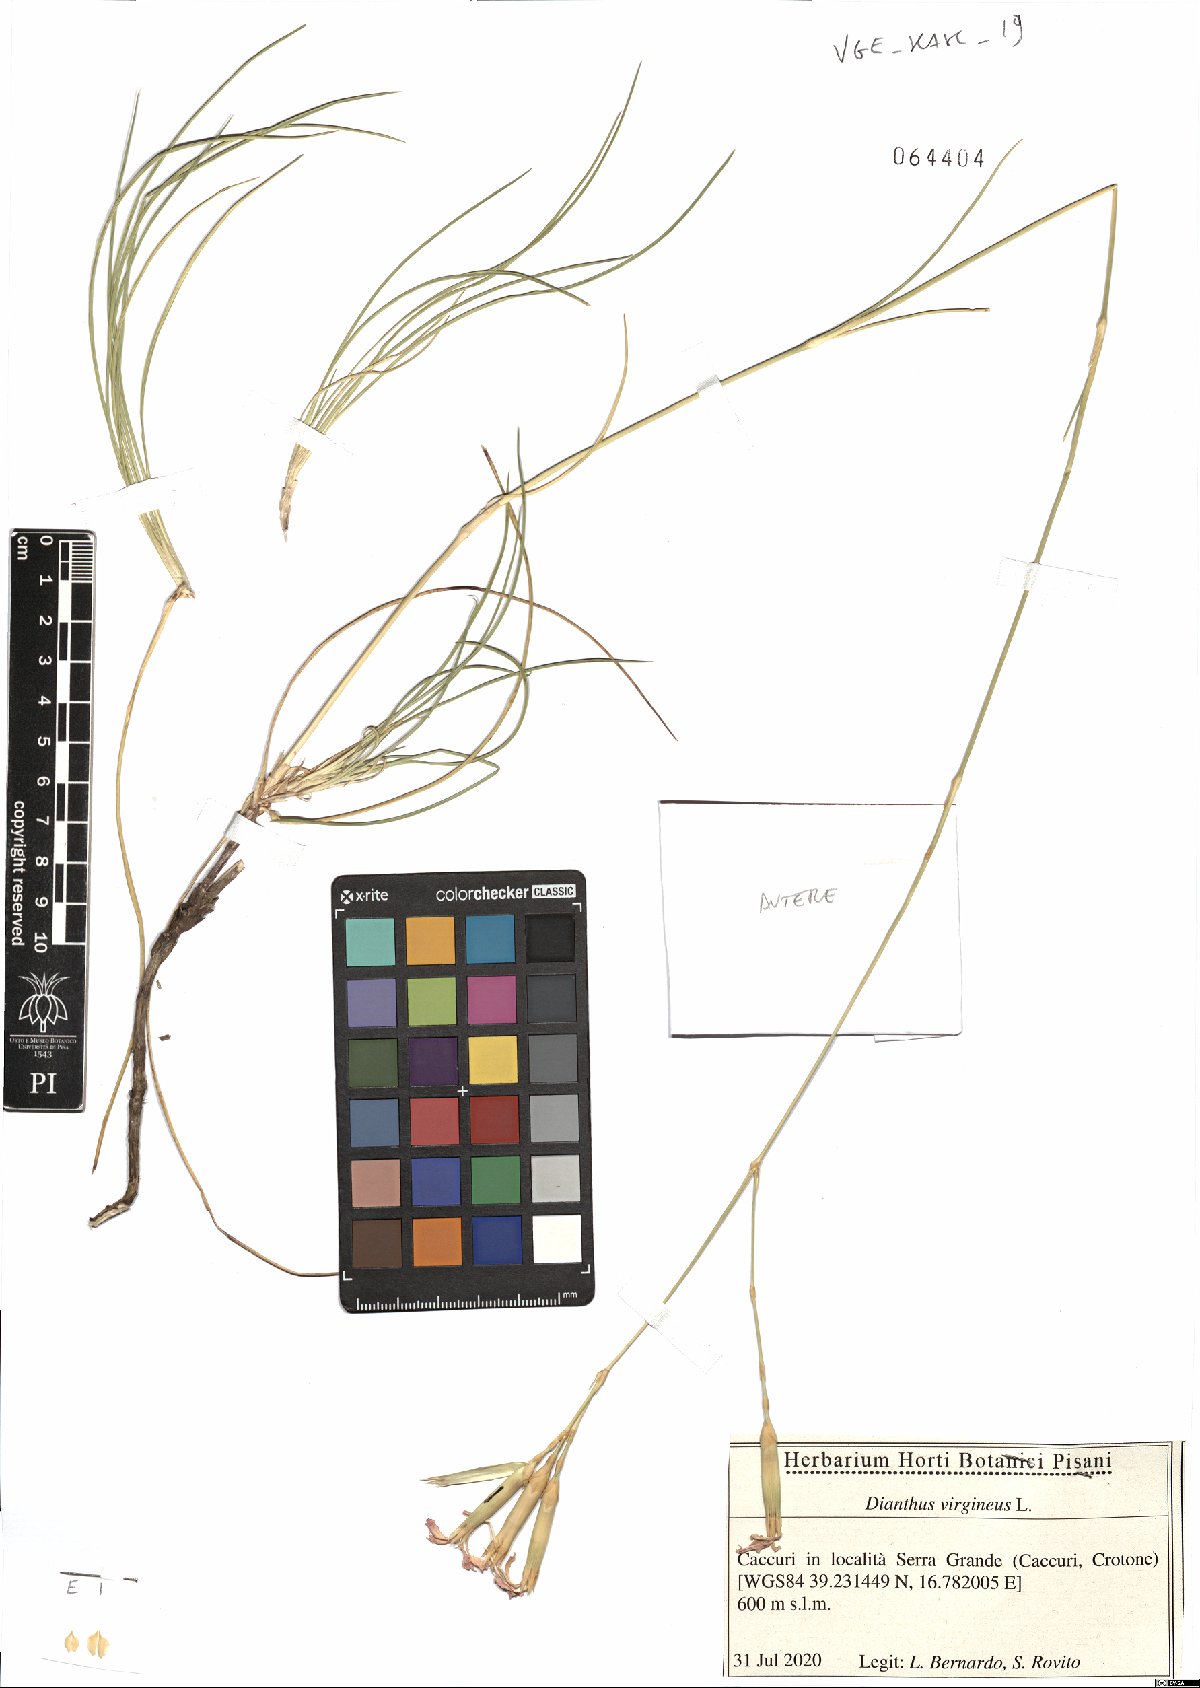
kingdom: Plantae
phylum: Tracheophyta
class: Magnoliopsida
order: Caryophyllales
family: Caryophyllaceae
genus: Dianthus
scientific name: Dianthus virgineus
